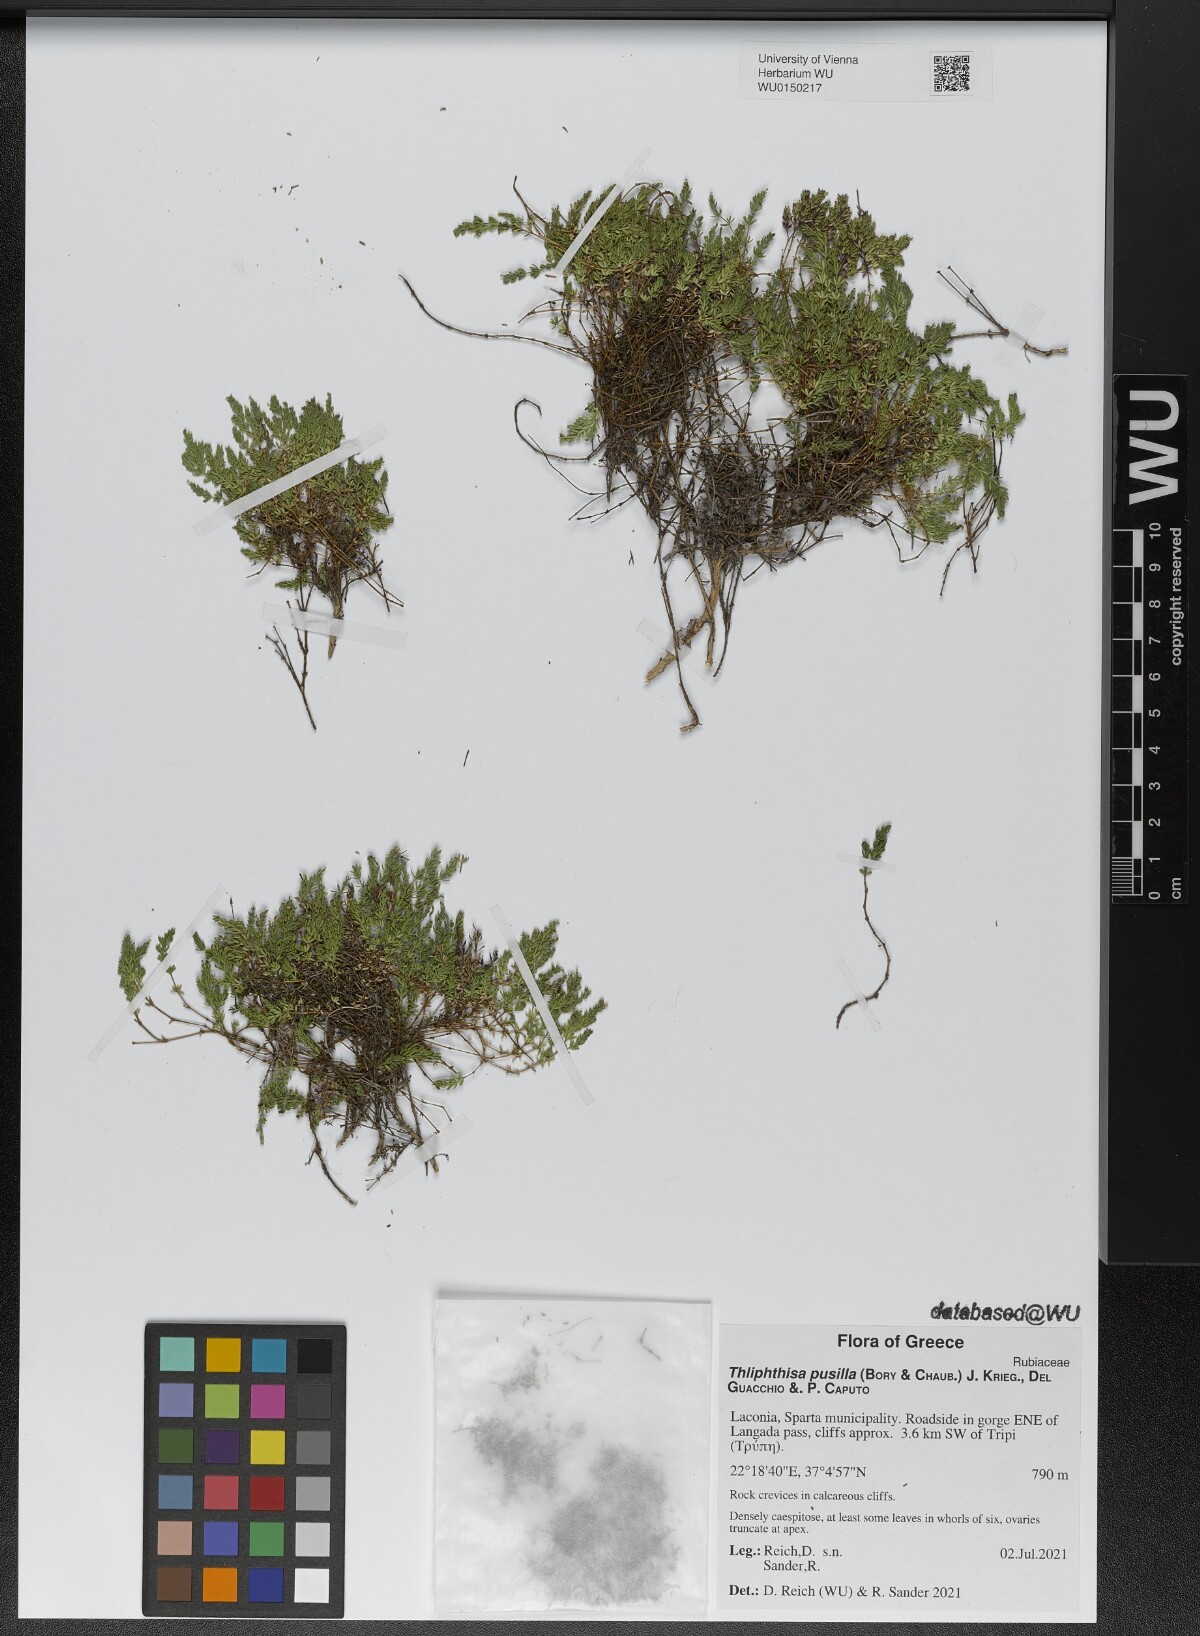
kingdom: Plantae
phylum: Tracheophyta
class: Magnoliopsida
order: Gentianales
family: Rubiaceae
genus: Thliphthisa
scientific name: Thliphthisa pusilla
